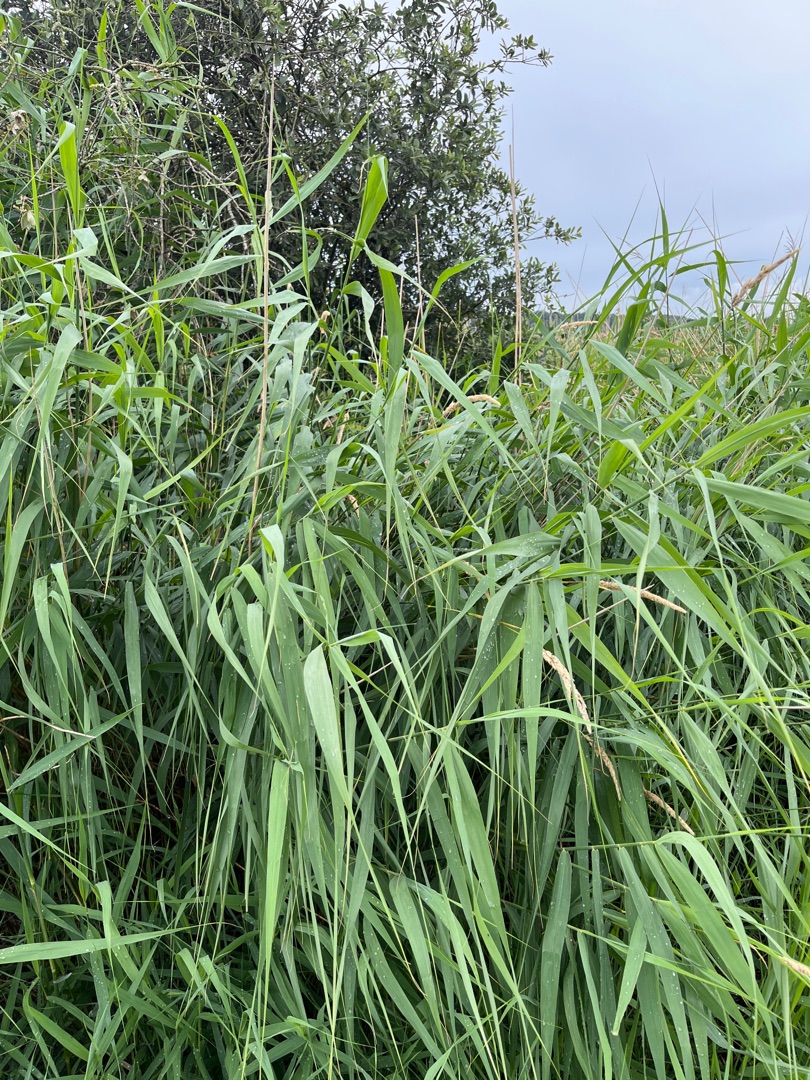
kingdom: Plantae
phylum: Tracheophyta
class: Liliopsida
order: Poales
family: Poaceae
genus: Phalaris
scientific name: Phalaris arundinacea
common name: Rørgræs
